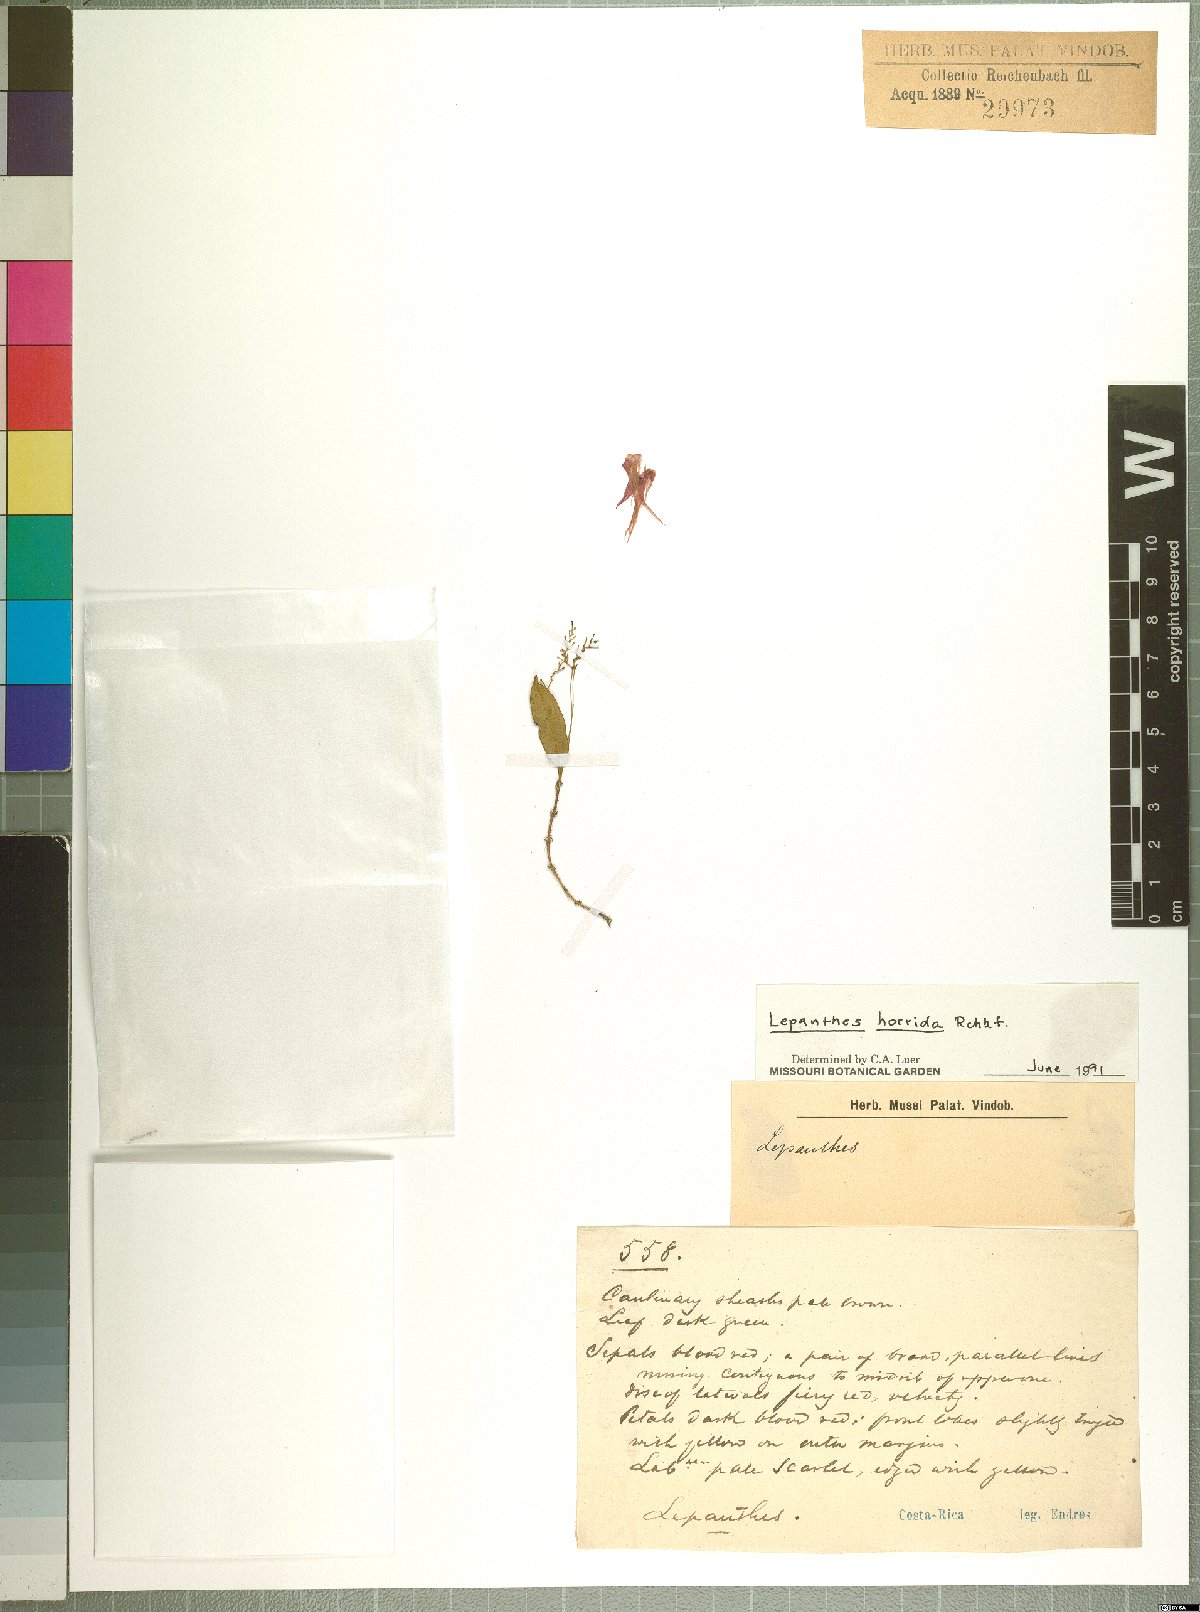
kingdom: Plantae
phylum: Tracheophyta
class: Liliopsida
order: Asparagales
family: Orchidaceae
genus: Lepanthes
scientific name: Lepanthes horrida
